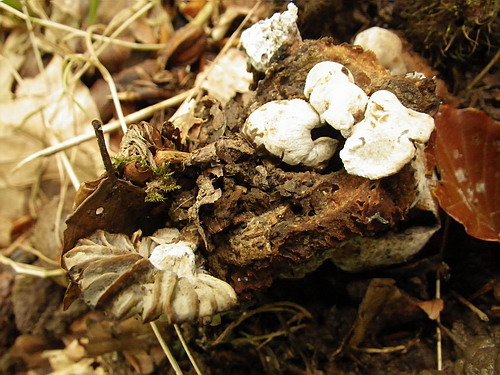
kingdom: Fungi
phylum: Basidiomycota
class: Agaricomycetes
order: Agaricales
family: Lyophyllaceae
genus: Asterophora
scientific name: Asterophora parasitica
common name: grå snyltehat
